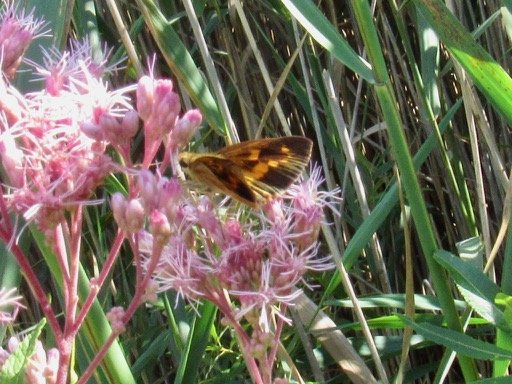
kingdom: Animalia
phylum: Arthropoda
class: Insecta
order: Lepidoptera
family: Hesperiidae
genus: Poanes
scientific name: Poanes viator
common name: Broad-winged Skipper
